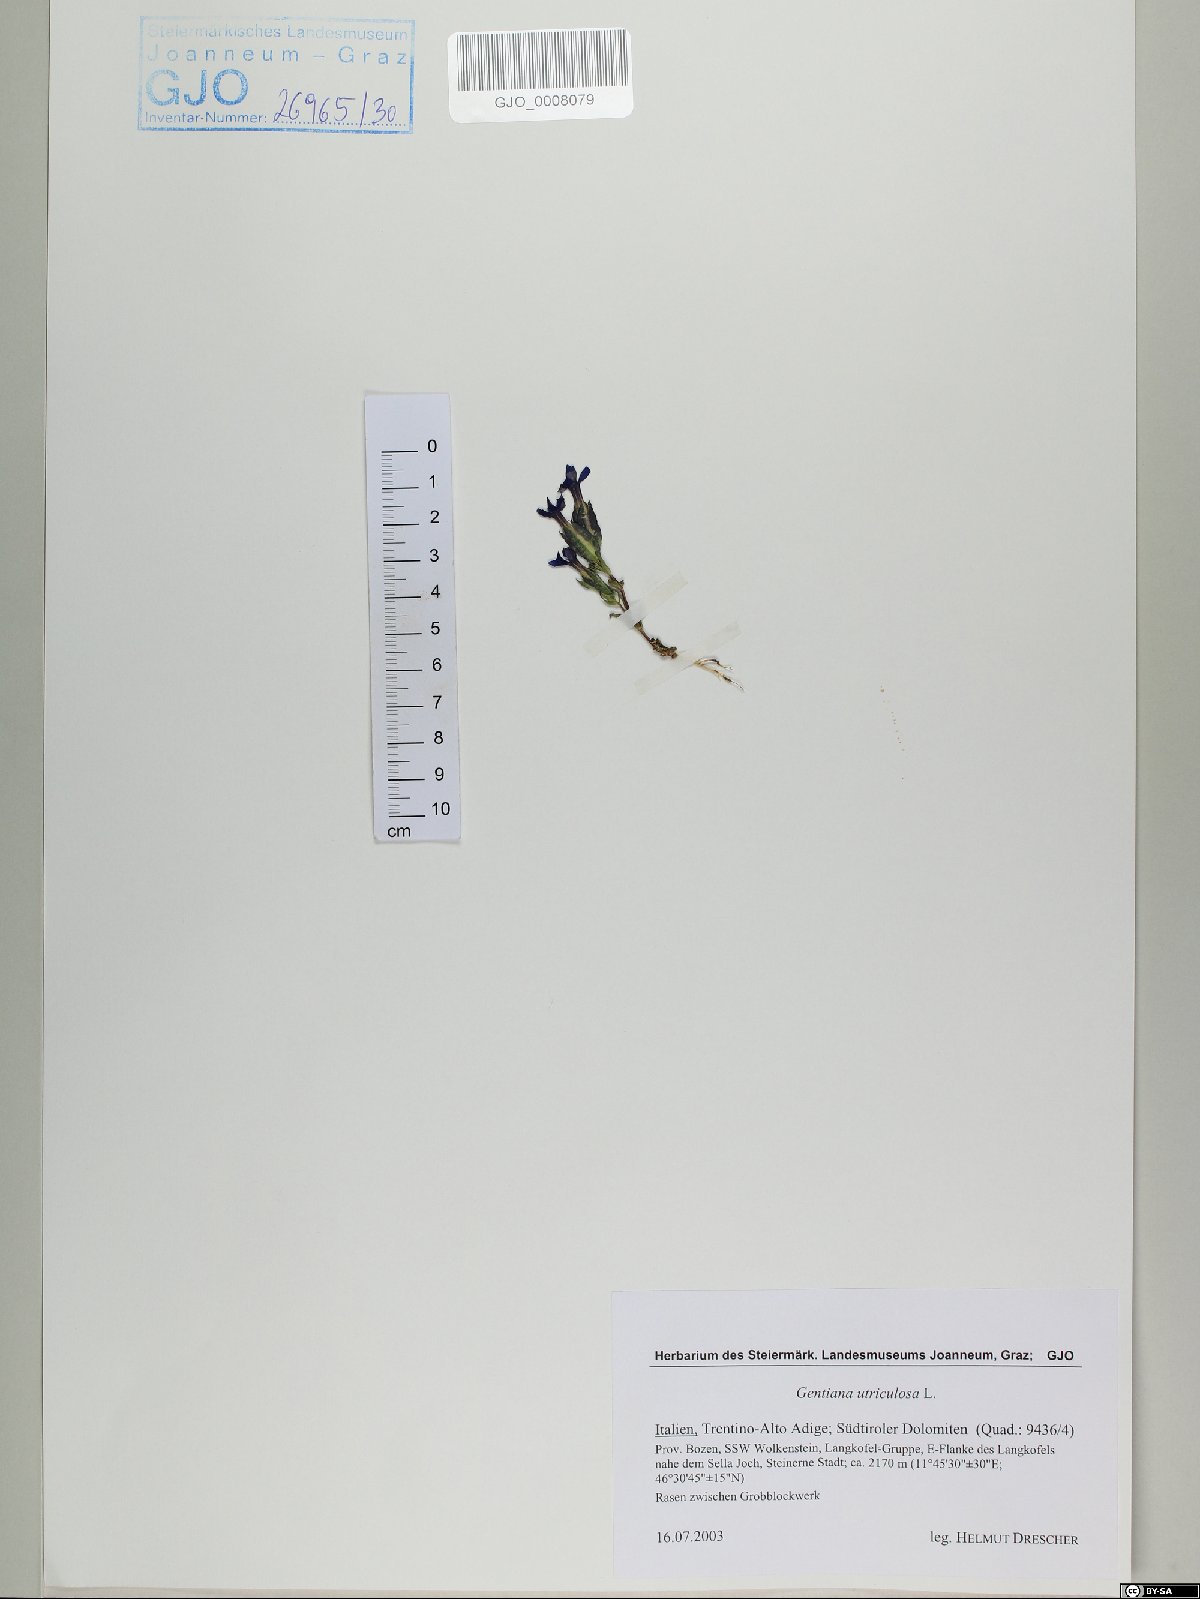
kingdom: Plantae
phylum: Tracheophyta
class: Magnoliopsida
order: Gentianales
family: Gentianaceae
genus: Gentiana
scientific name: Gentiana utriculosa
